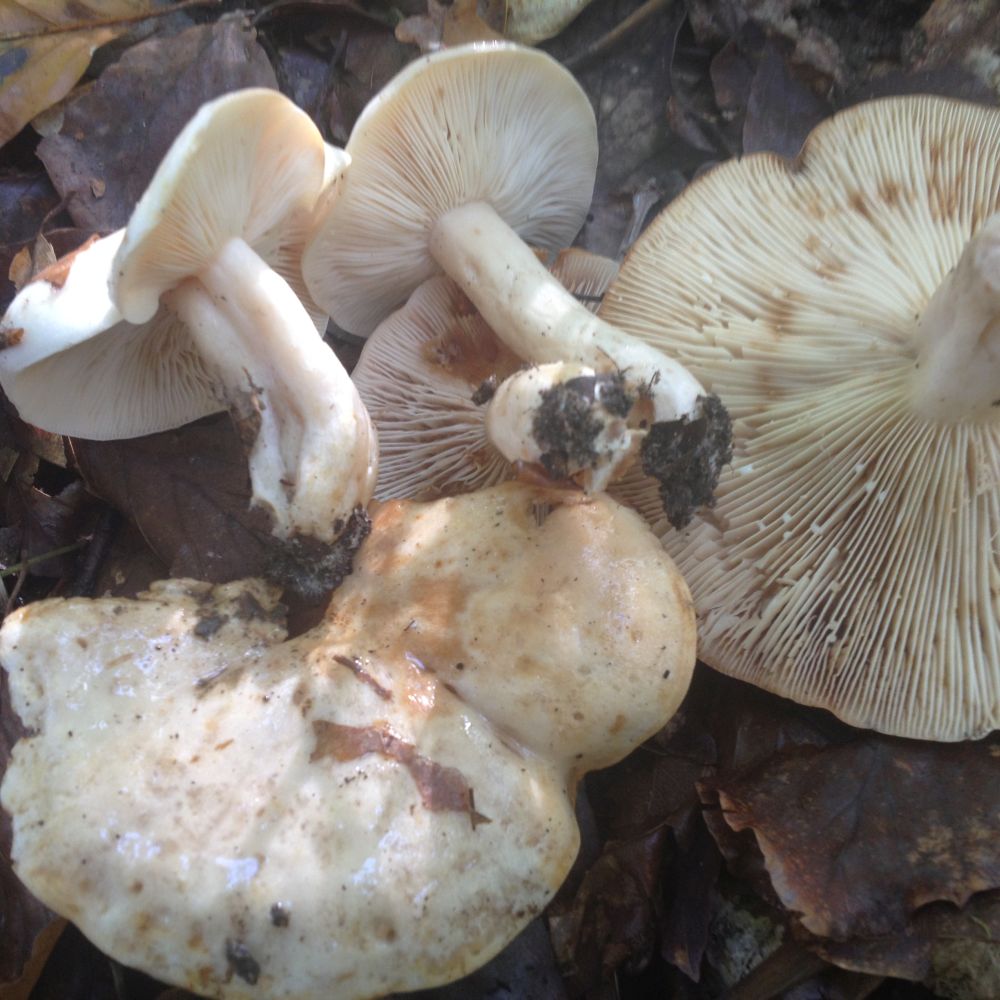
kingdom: Fungi
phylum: Basidiomycota
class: Agaricomycetes
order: Russulales
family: Russulaceae
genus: Lactarius
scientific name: Lactarius pallidus
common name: bleg mælkehat
